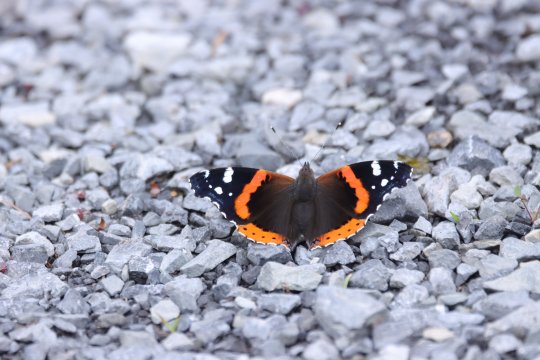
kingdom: Animalia
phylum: Arthropoda
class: Insecta
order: Lepidoptera
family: Nymphalidae
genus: Vanessa
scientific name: Vanessa atalanta
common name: Red Admiral
